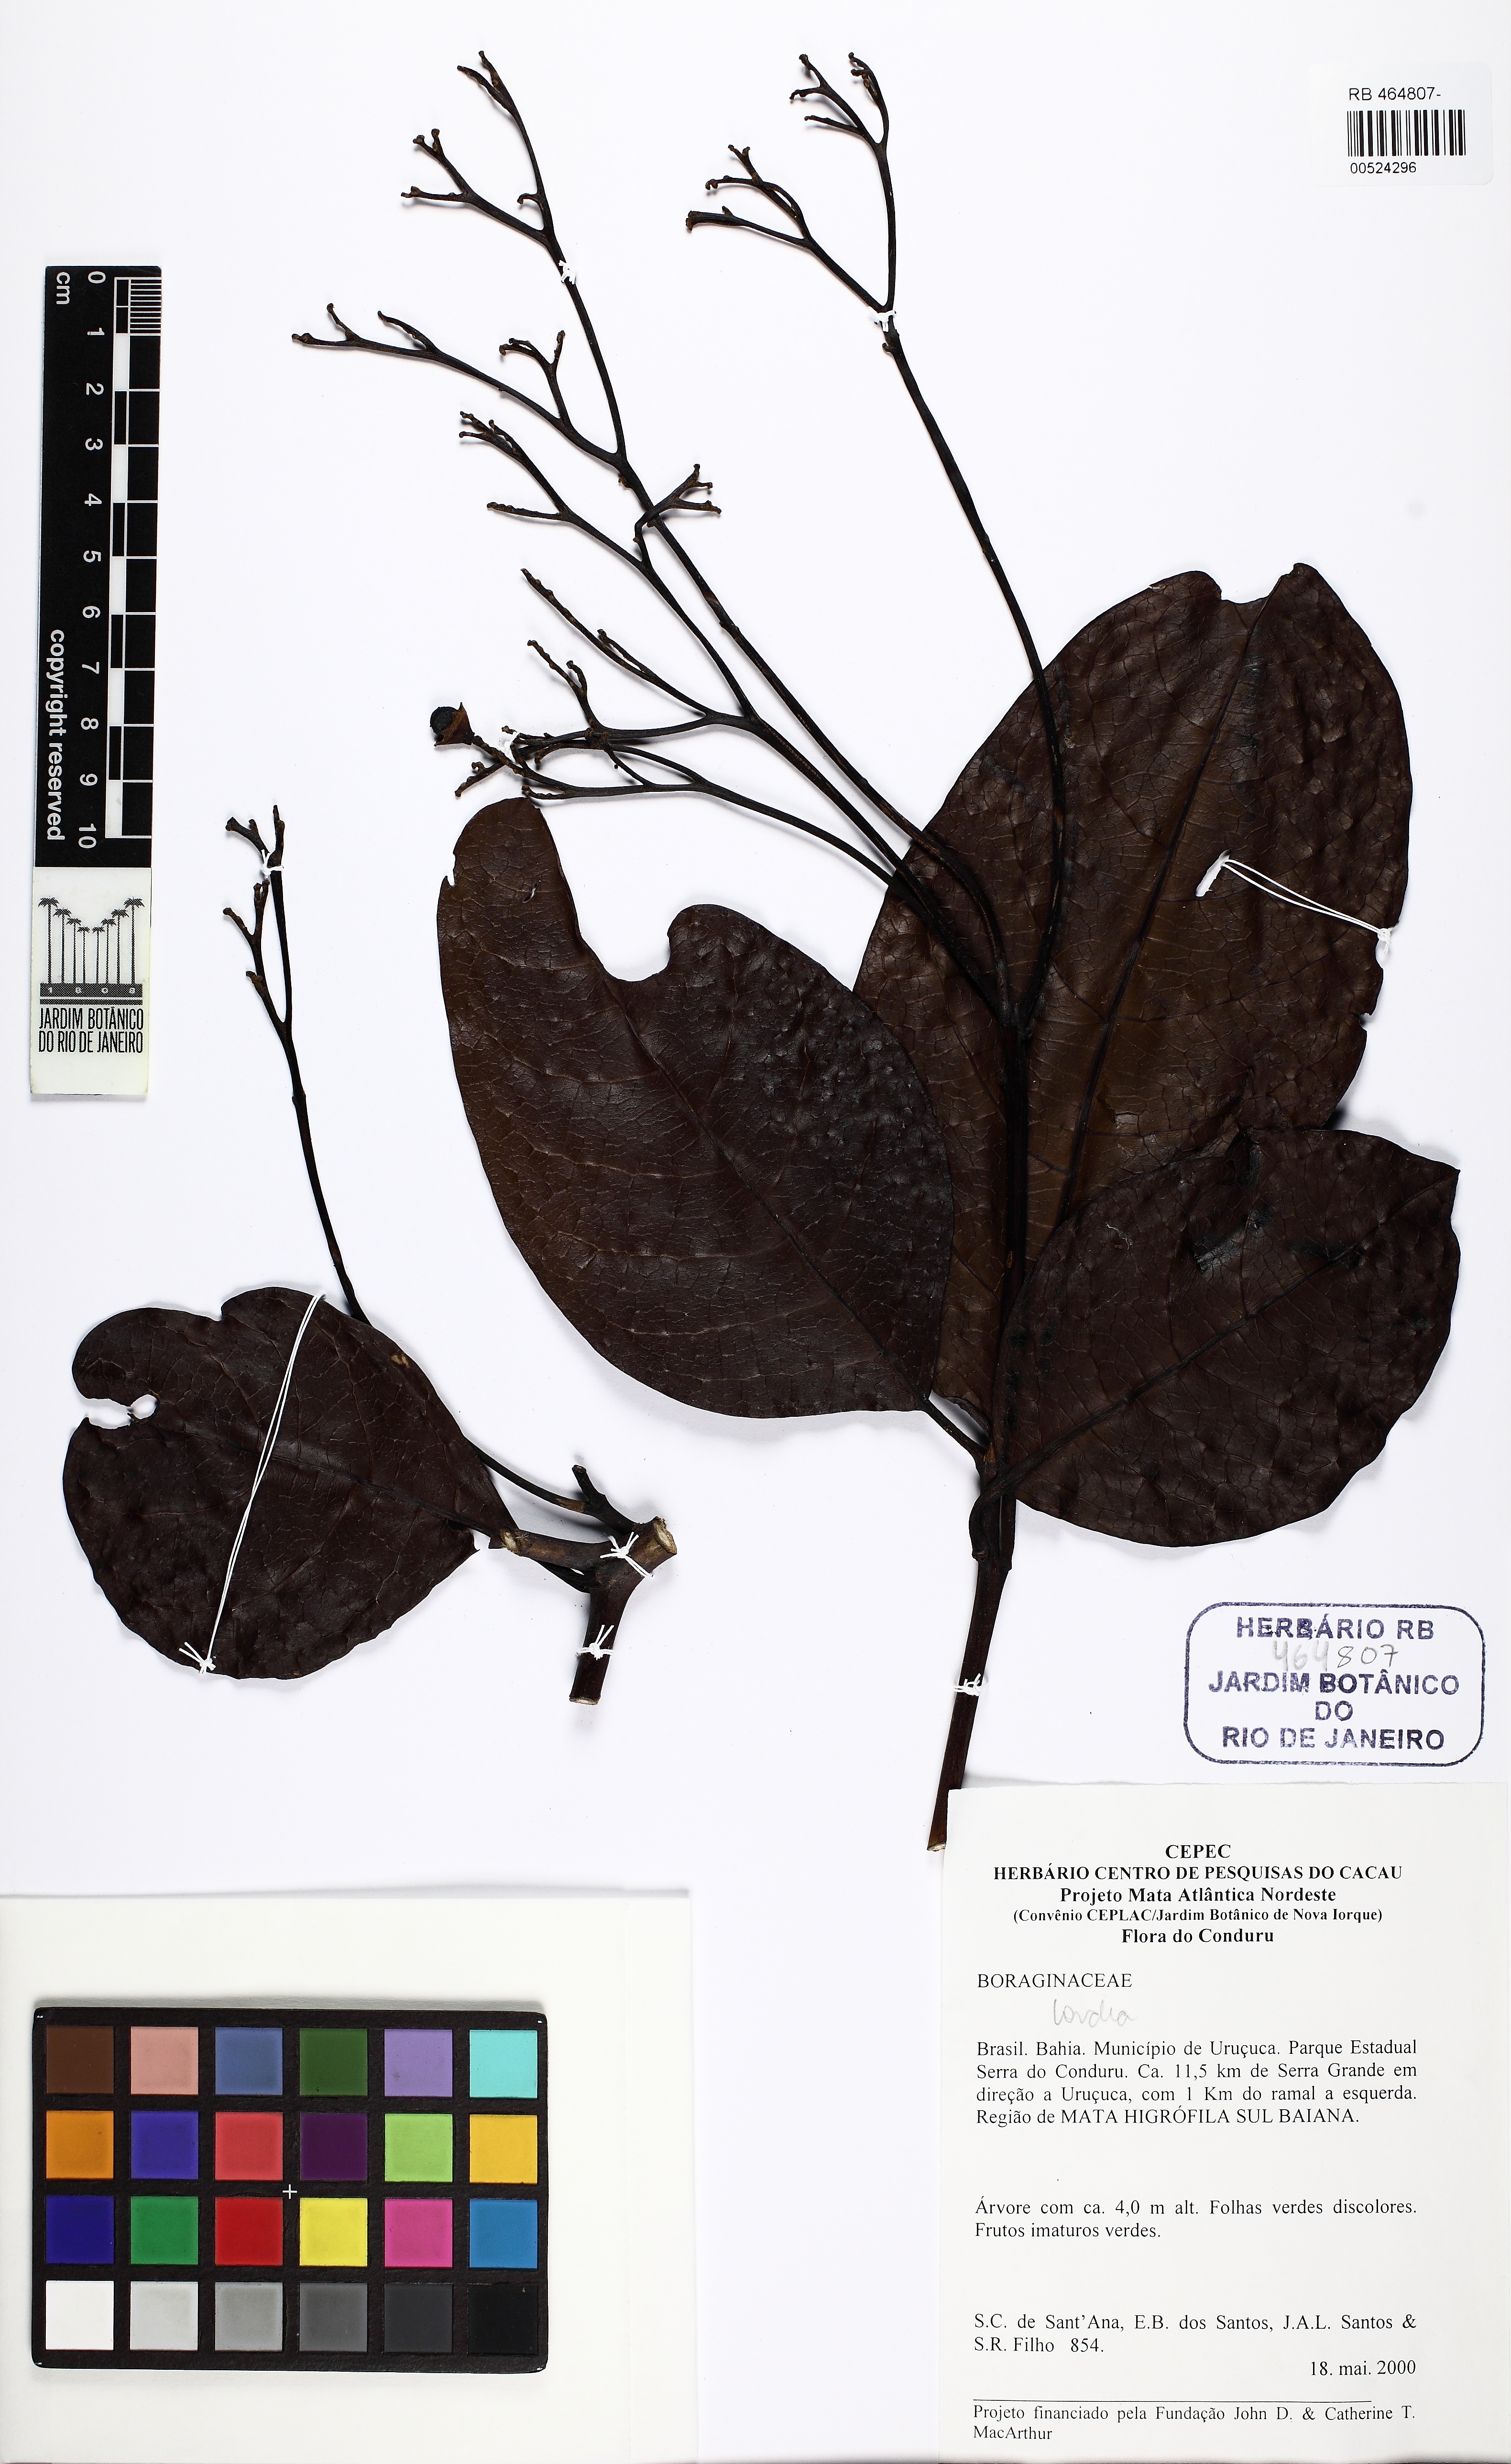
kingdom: Plantae
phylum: Tracheophyta
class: Magnoliopsida
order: Boraginales
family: Cordiaceae
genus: Cordia
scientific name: Cordia
